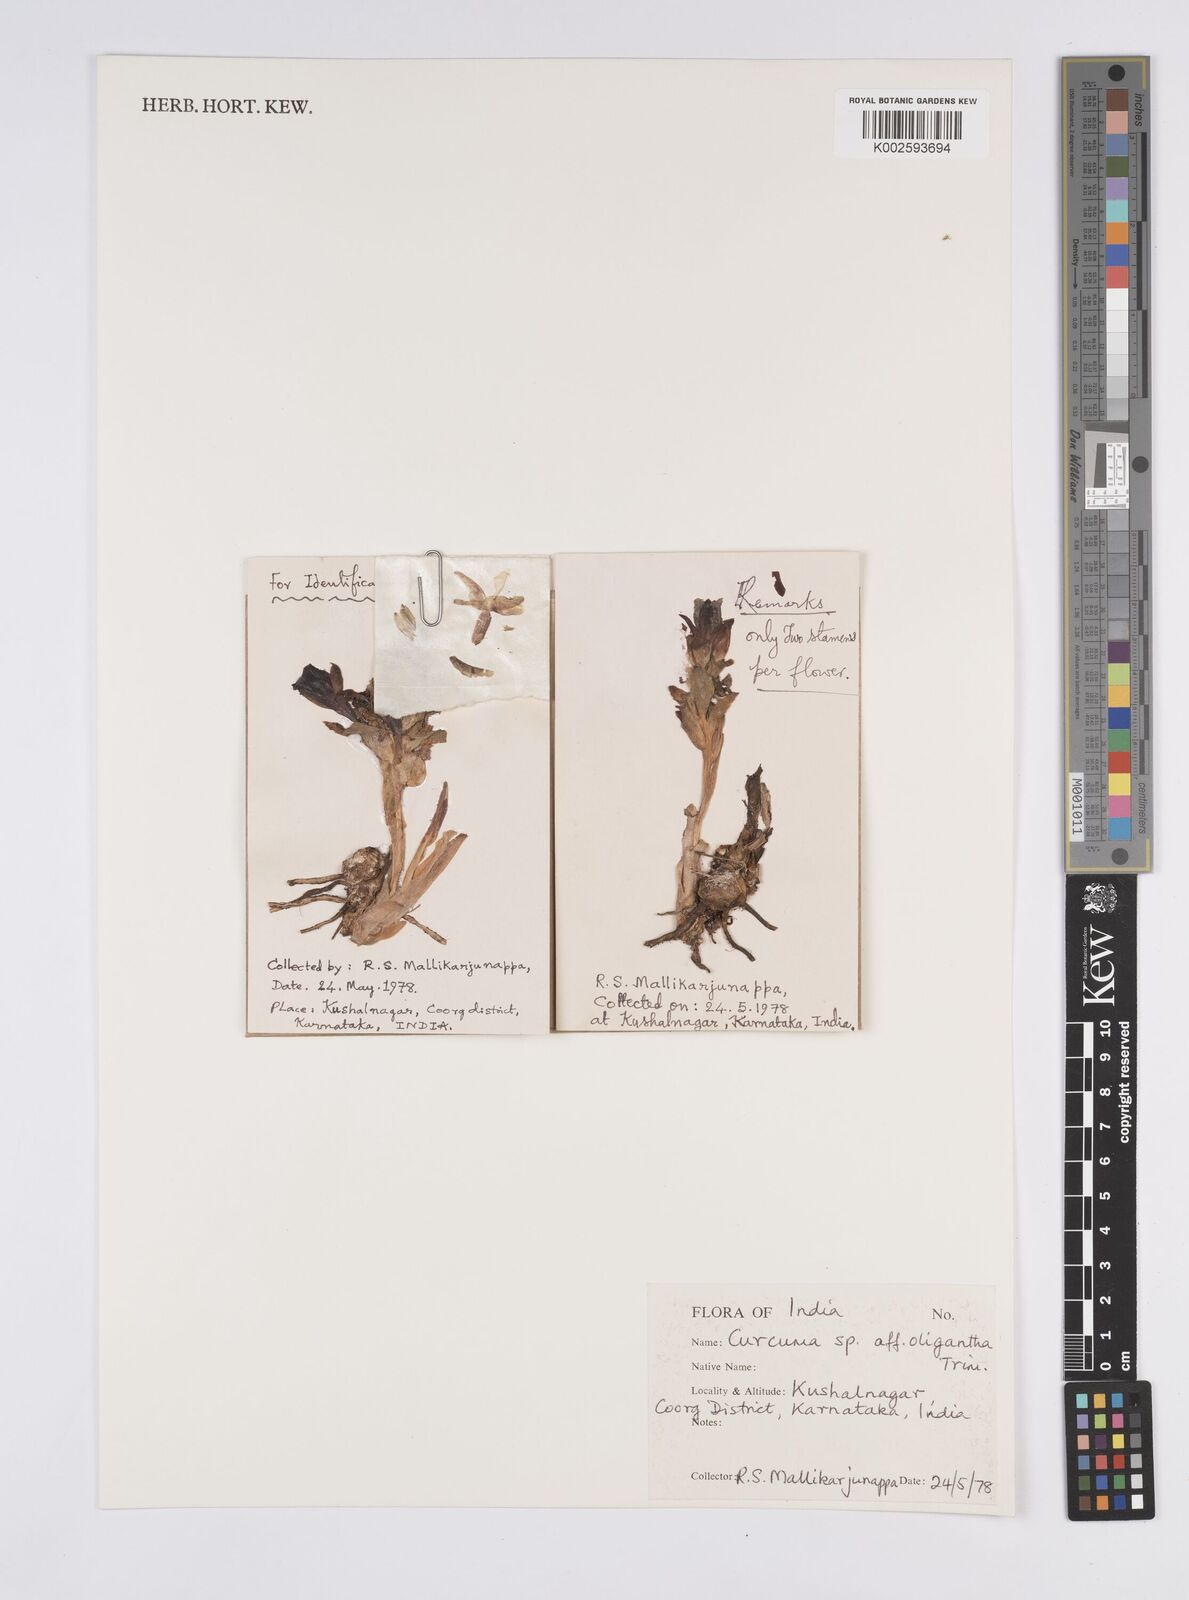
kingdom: Plantae
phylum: Tracheophyta
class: Liliopsida
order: Zingiberales
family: Zingiberaceae
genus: Curcuma
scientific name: Curcuma oligantha
